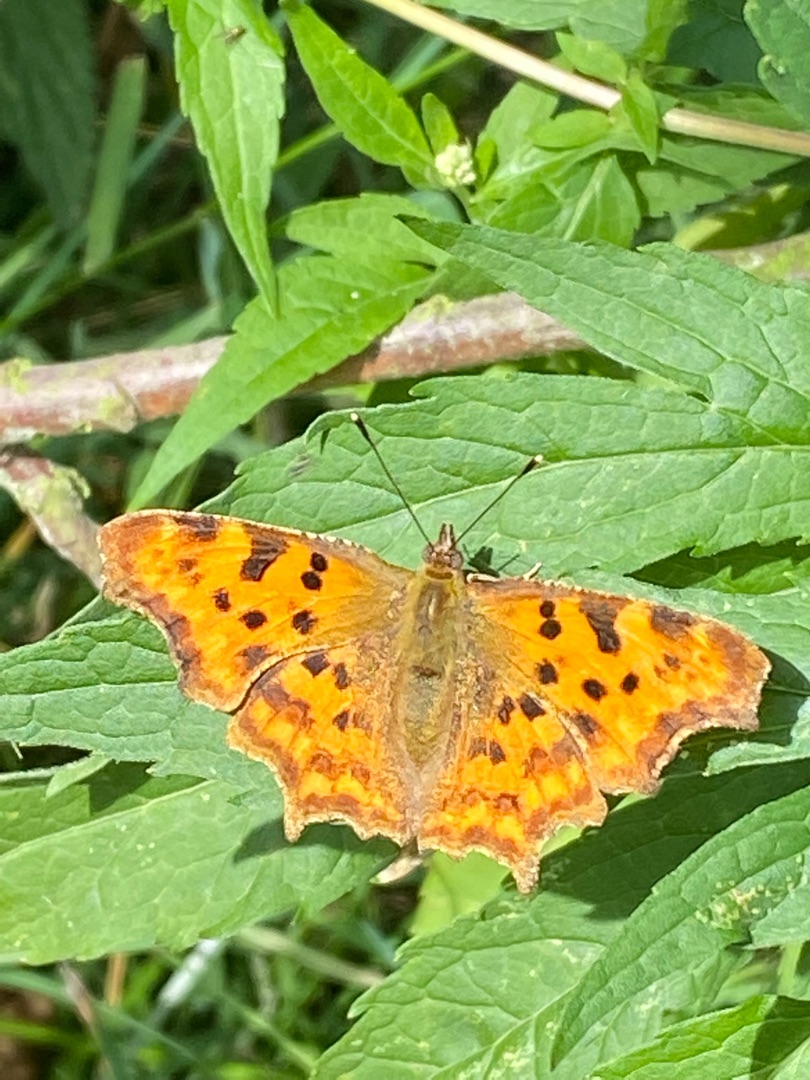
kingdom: Animalia
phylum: Arthropoda
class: Insecta
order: Lepidoptera
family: Nymphalidae
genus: Polygonia
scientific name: Polygonia c-album
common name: Det hvide C
